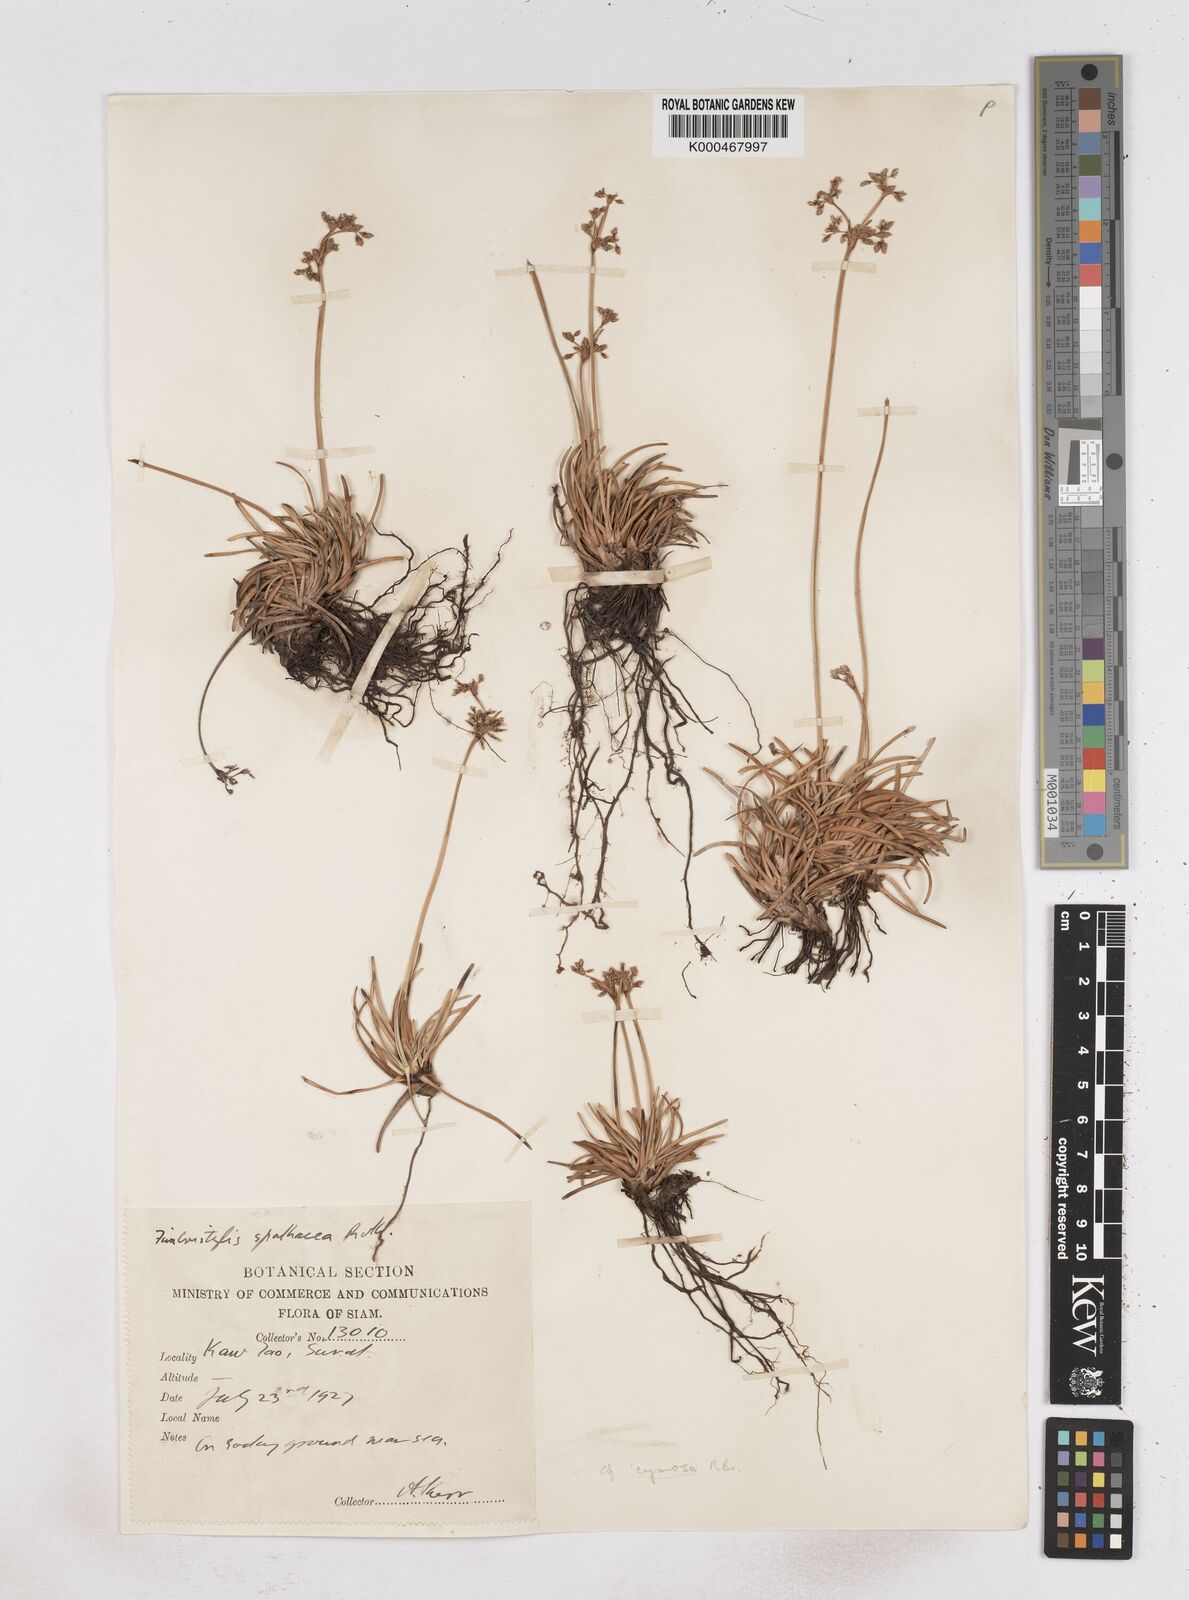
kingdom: Plantae
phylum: Tracheophyta
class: Liliopsida
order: Poales
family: Cyperaceae
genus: Fimbristylis
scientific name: Fimbristylis falcata
